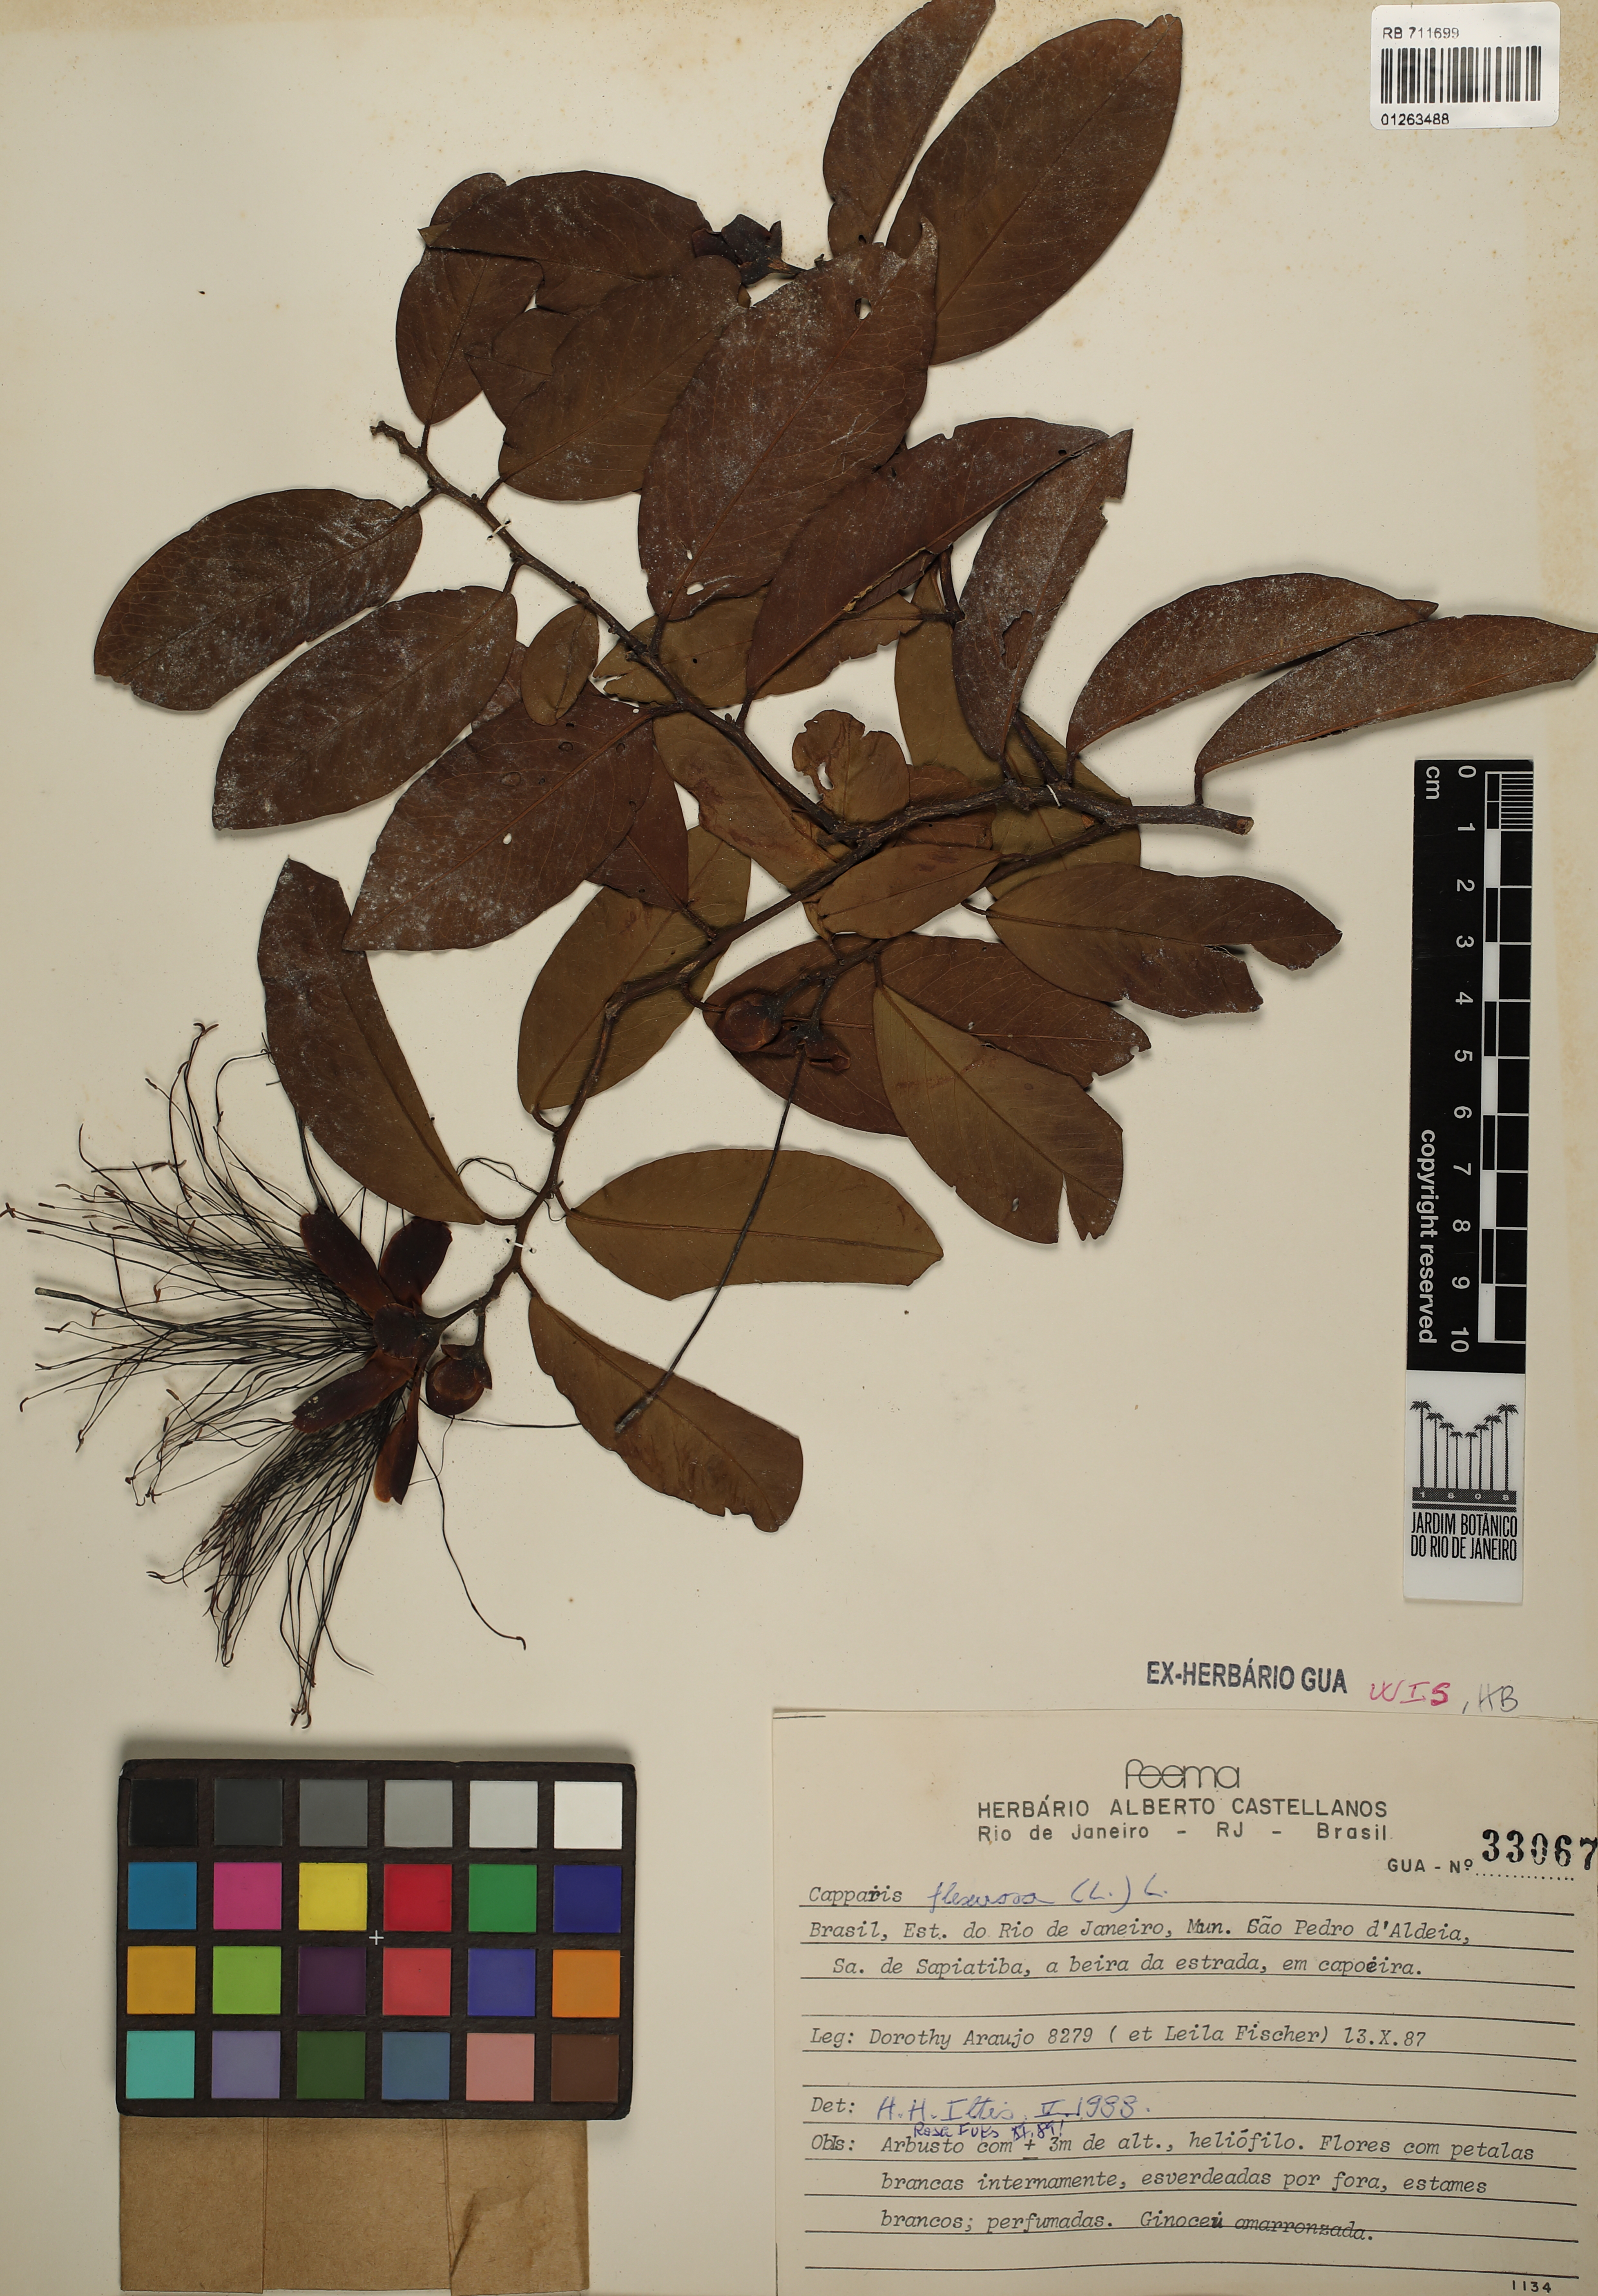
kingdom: Plantae
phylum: Tracheophyta
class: Magnoliopsida
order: Brassicales
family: Capparaceae
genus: Cynophalla
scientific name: Cynophalla flexuosa
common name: Capertree
